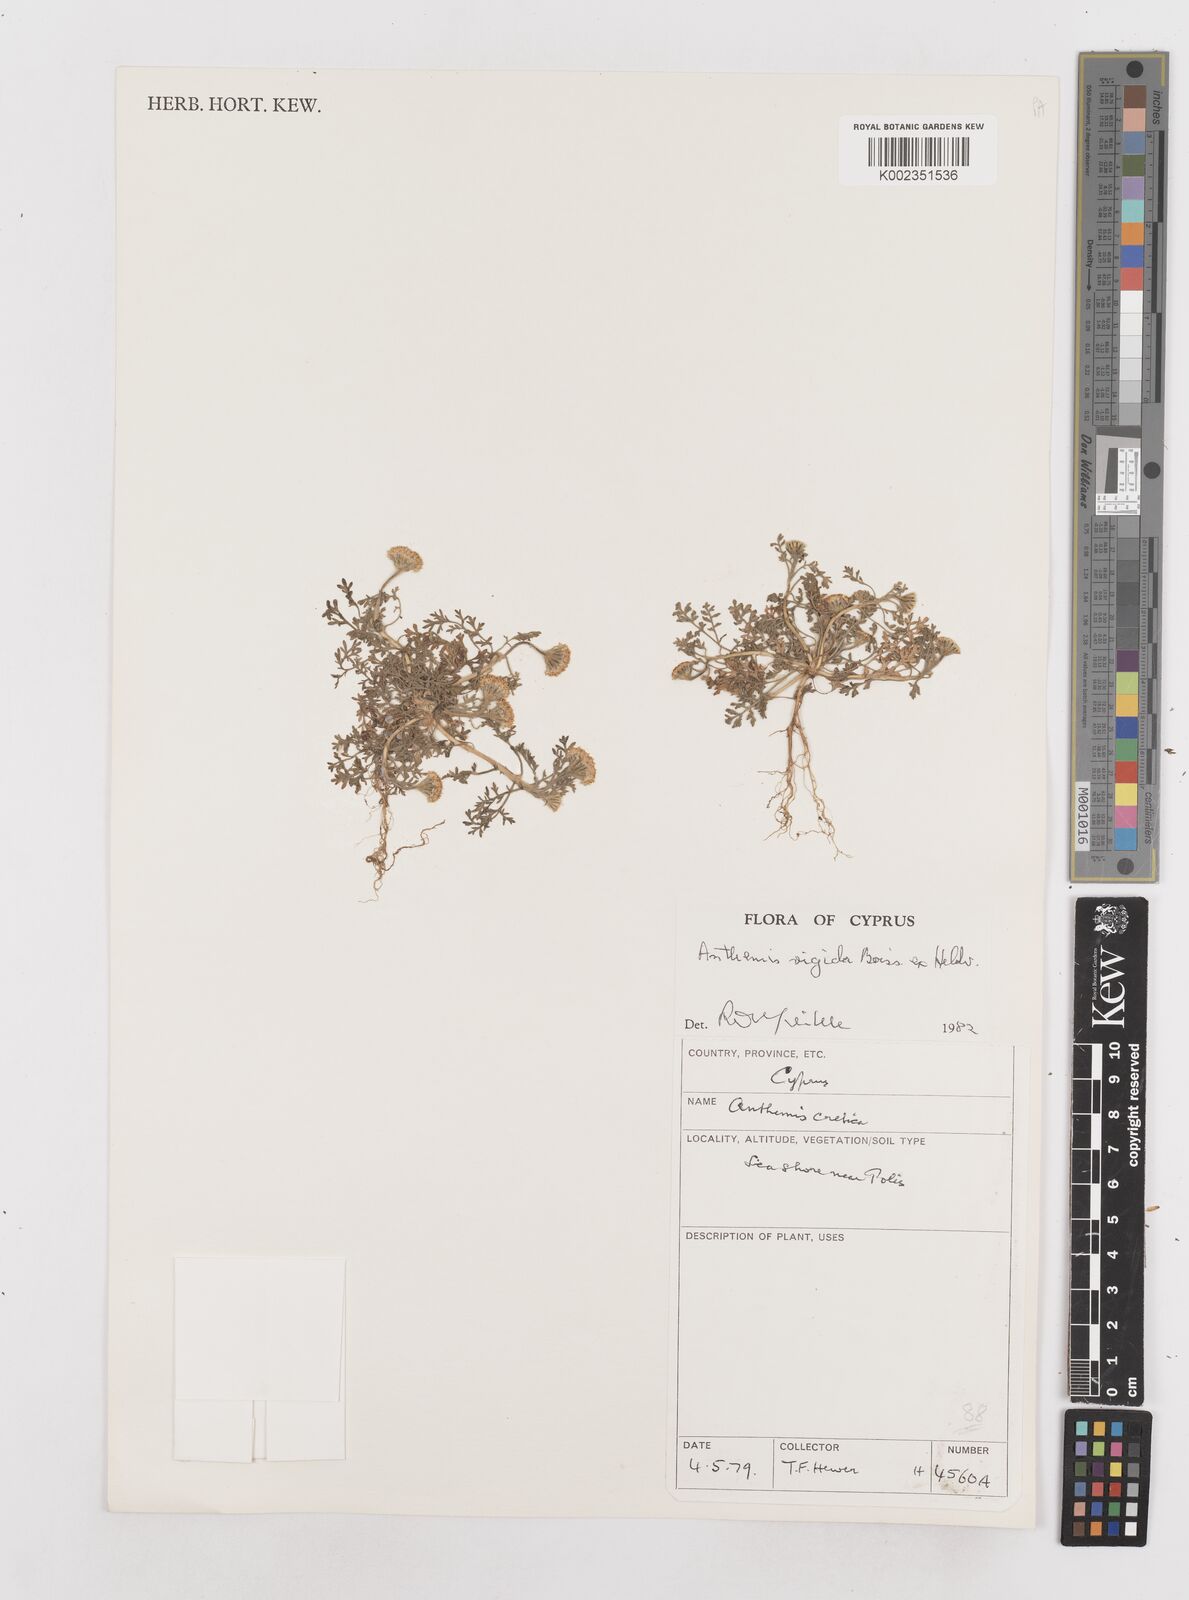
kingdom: Plantae
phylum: Tracheophyta
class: Magnoliopsida
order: Asterales
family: Asteraceae
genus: Anthemis
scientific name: Anthemis rigida
